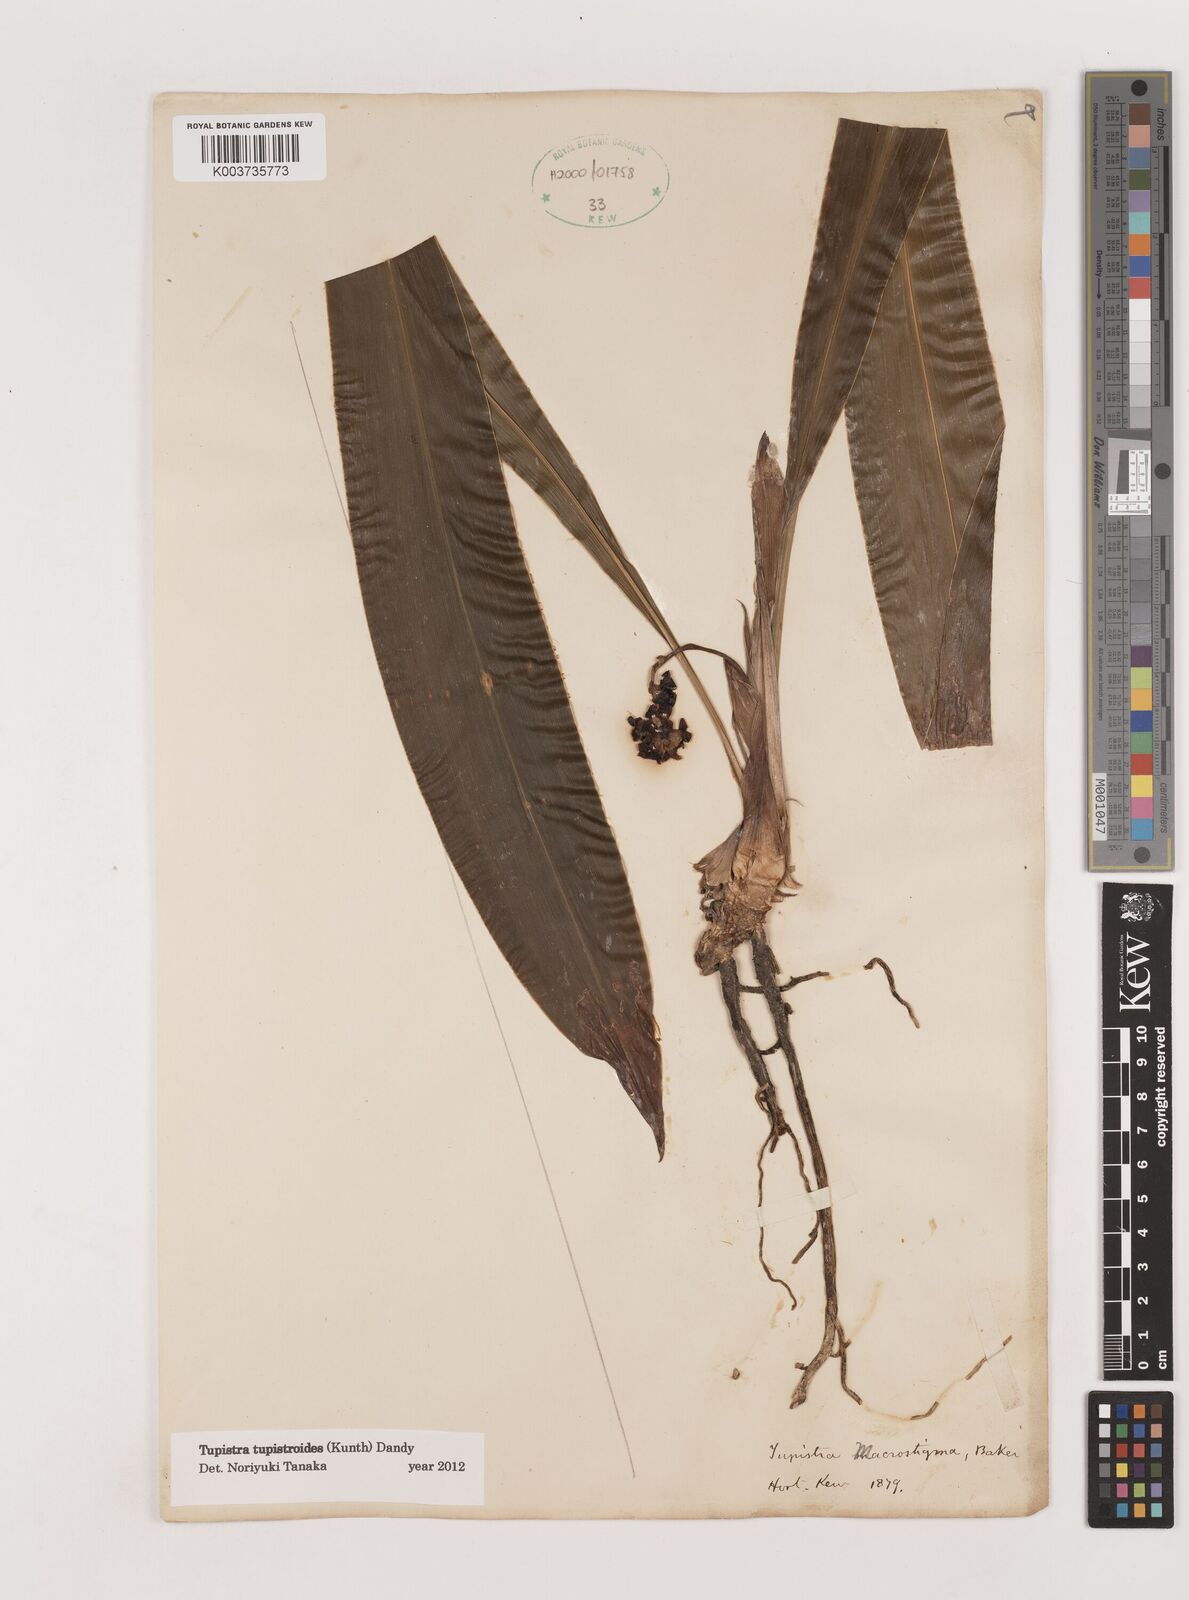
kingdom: Plantae
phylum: Tracheophyta
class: Liliopsida
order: Asparagales
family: Asparagaceae
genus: Tupistra
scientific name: Tupistra tupistroides
